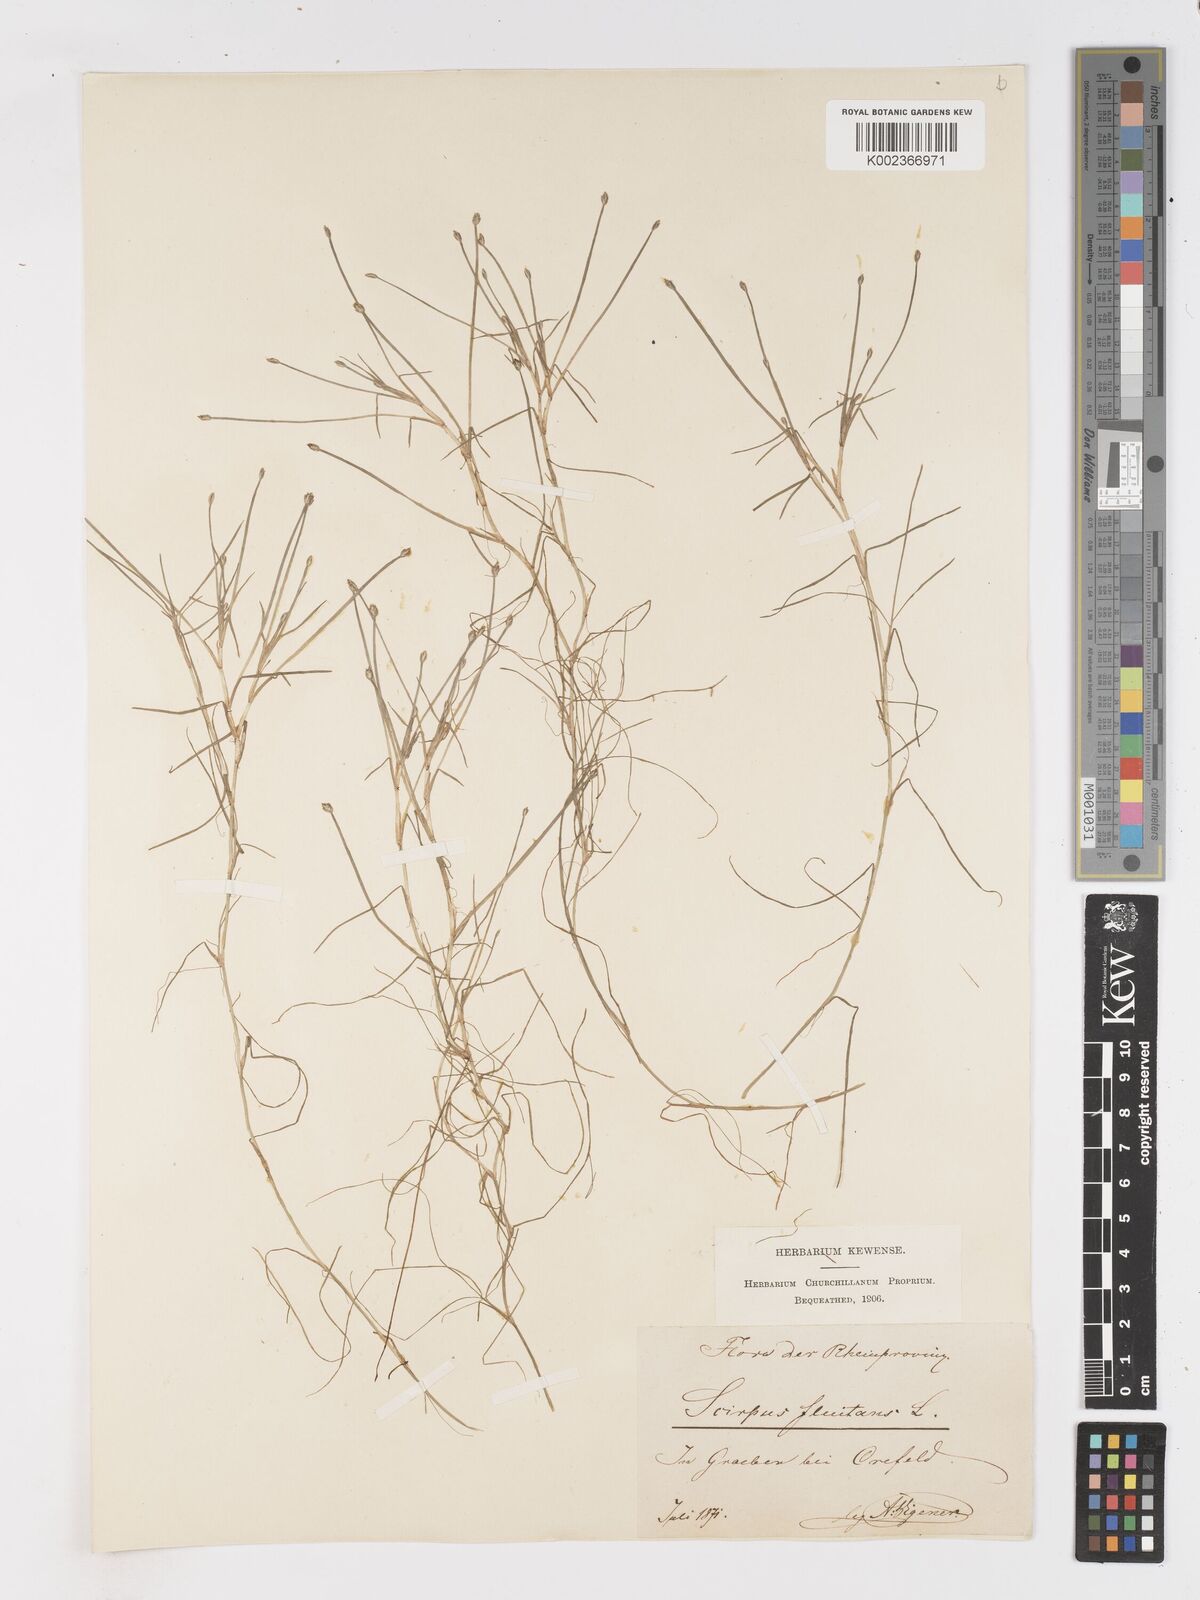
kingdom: Plantae
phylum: Tracheophyta
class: Liliopsida
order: Poales
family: Cyperaceae
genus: Isolepis
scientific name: Isolepis fluitans
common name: Floating club-rush
